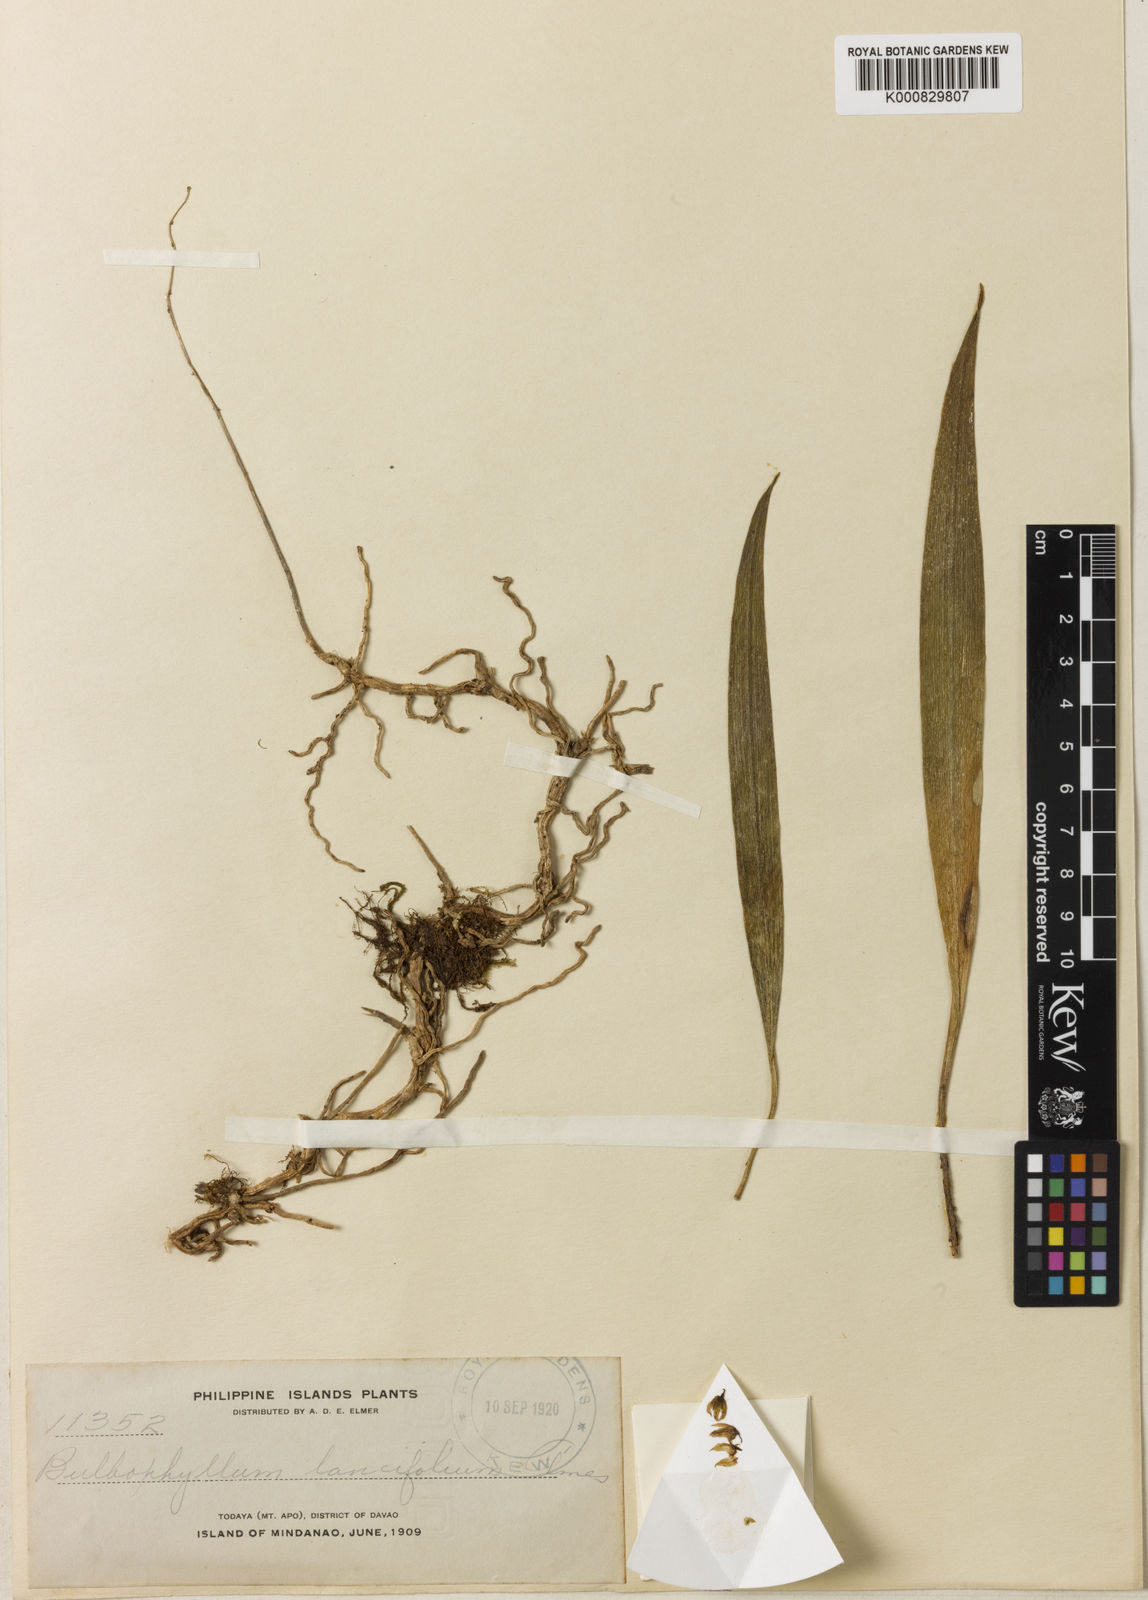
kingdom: Plantae
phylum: Tracheophyta
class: Liliopsida
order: Asparagales
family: Orchidaceae
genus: Bulbophyllum
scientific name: Bulbophyllum lancifolium
